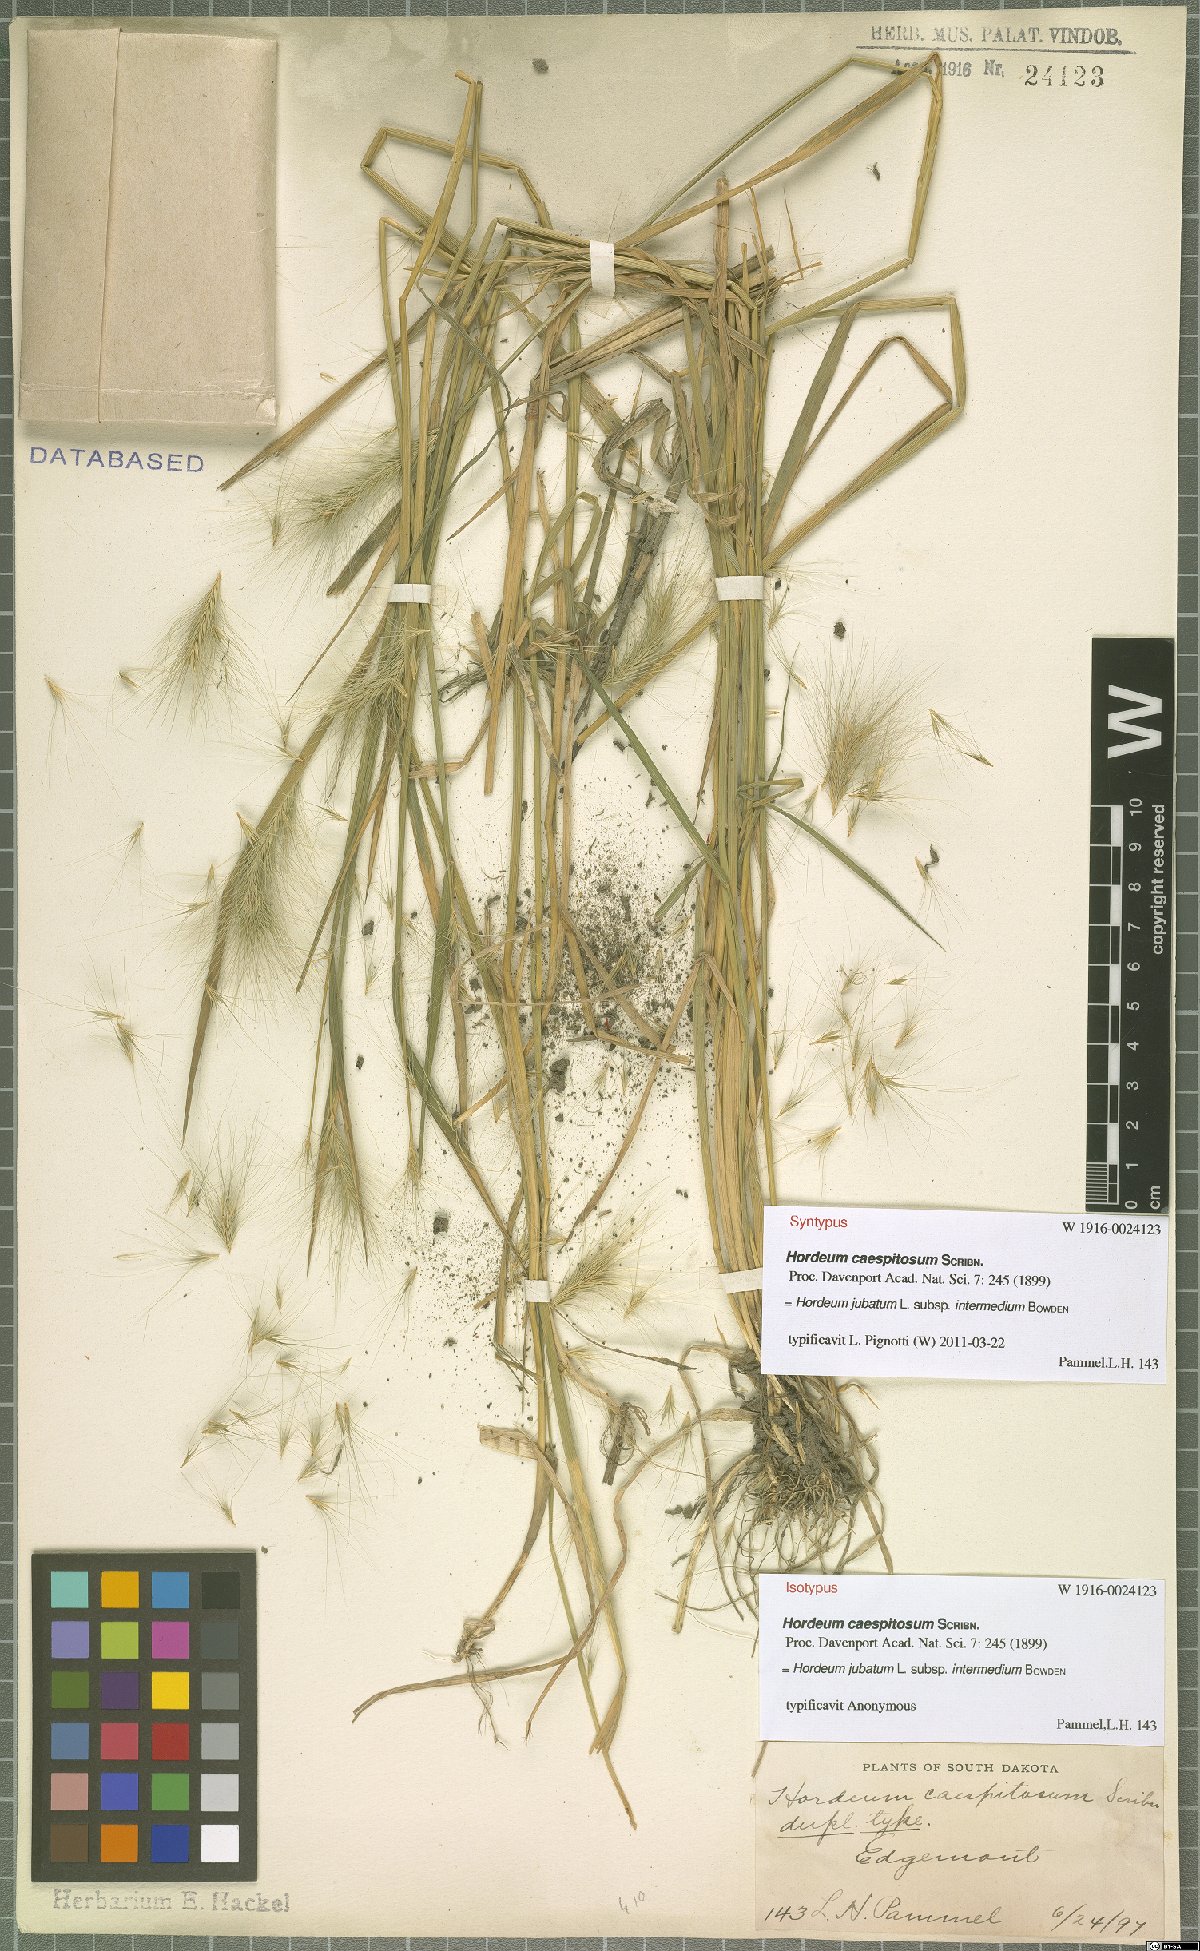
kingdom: Plantae
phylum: Tracheophyta
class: Liliopsida
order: Poales
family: Poaceae
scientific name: Poaceae
